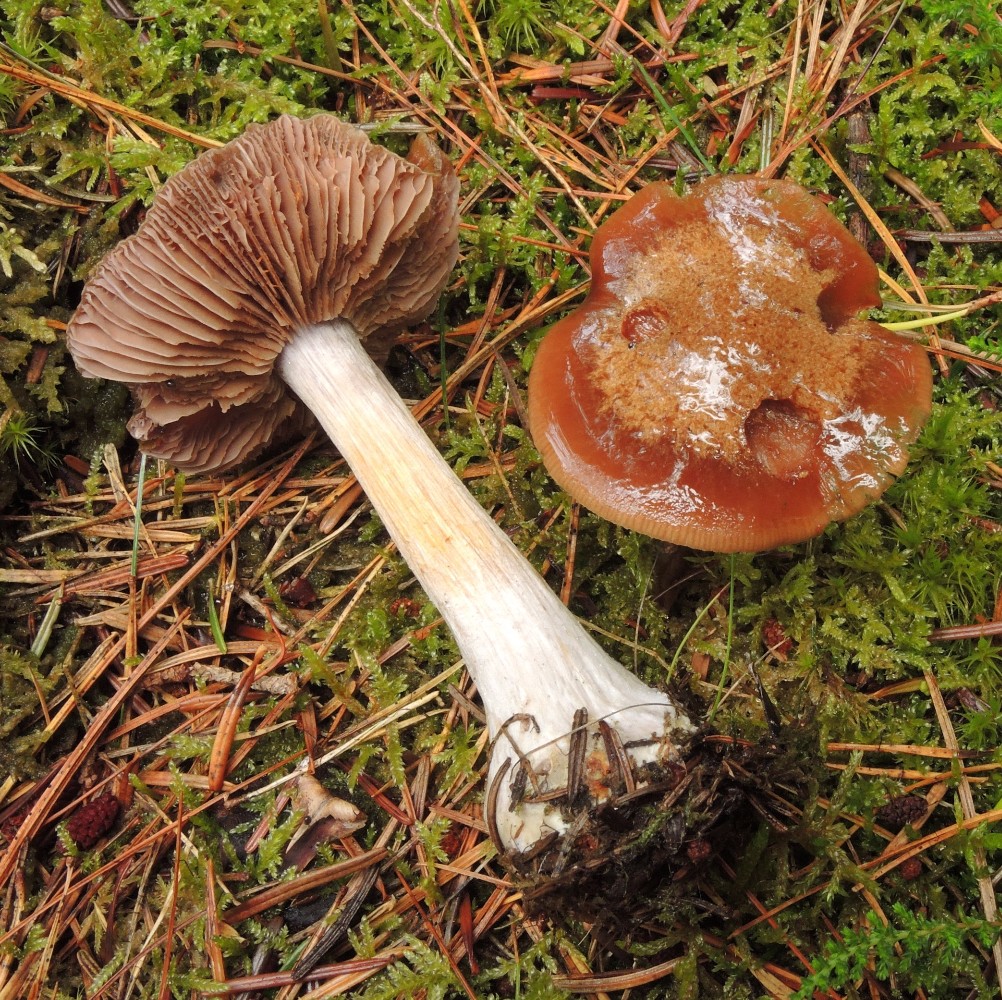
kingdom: Fungi
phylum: Basidiomycota
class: Agaricomycetes
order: Agaricales
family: Cortinariaceae
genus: Thaxterogaster
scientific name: Thaxterogaster sphagnophilus
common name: vandplettet slørhat
